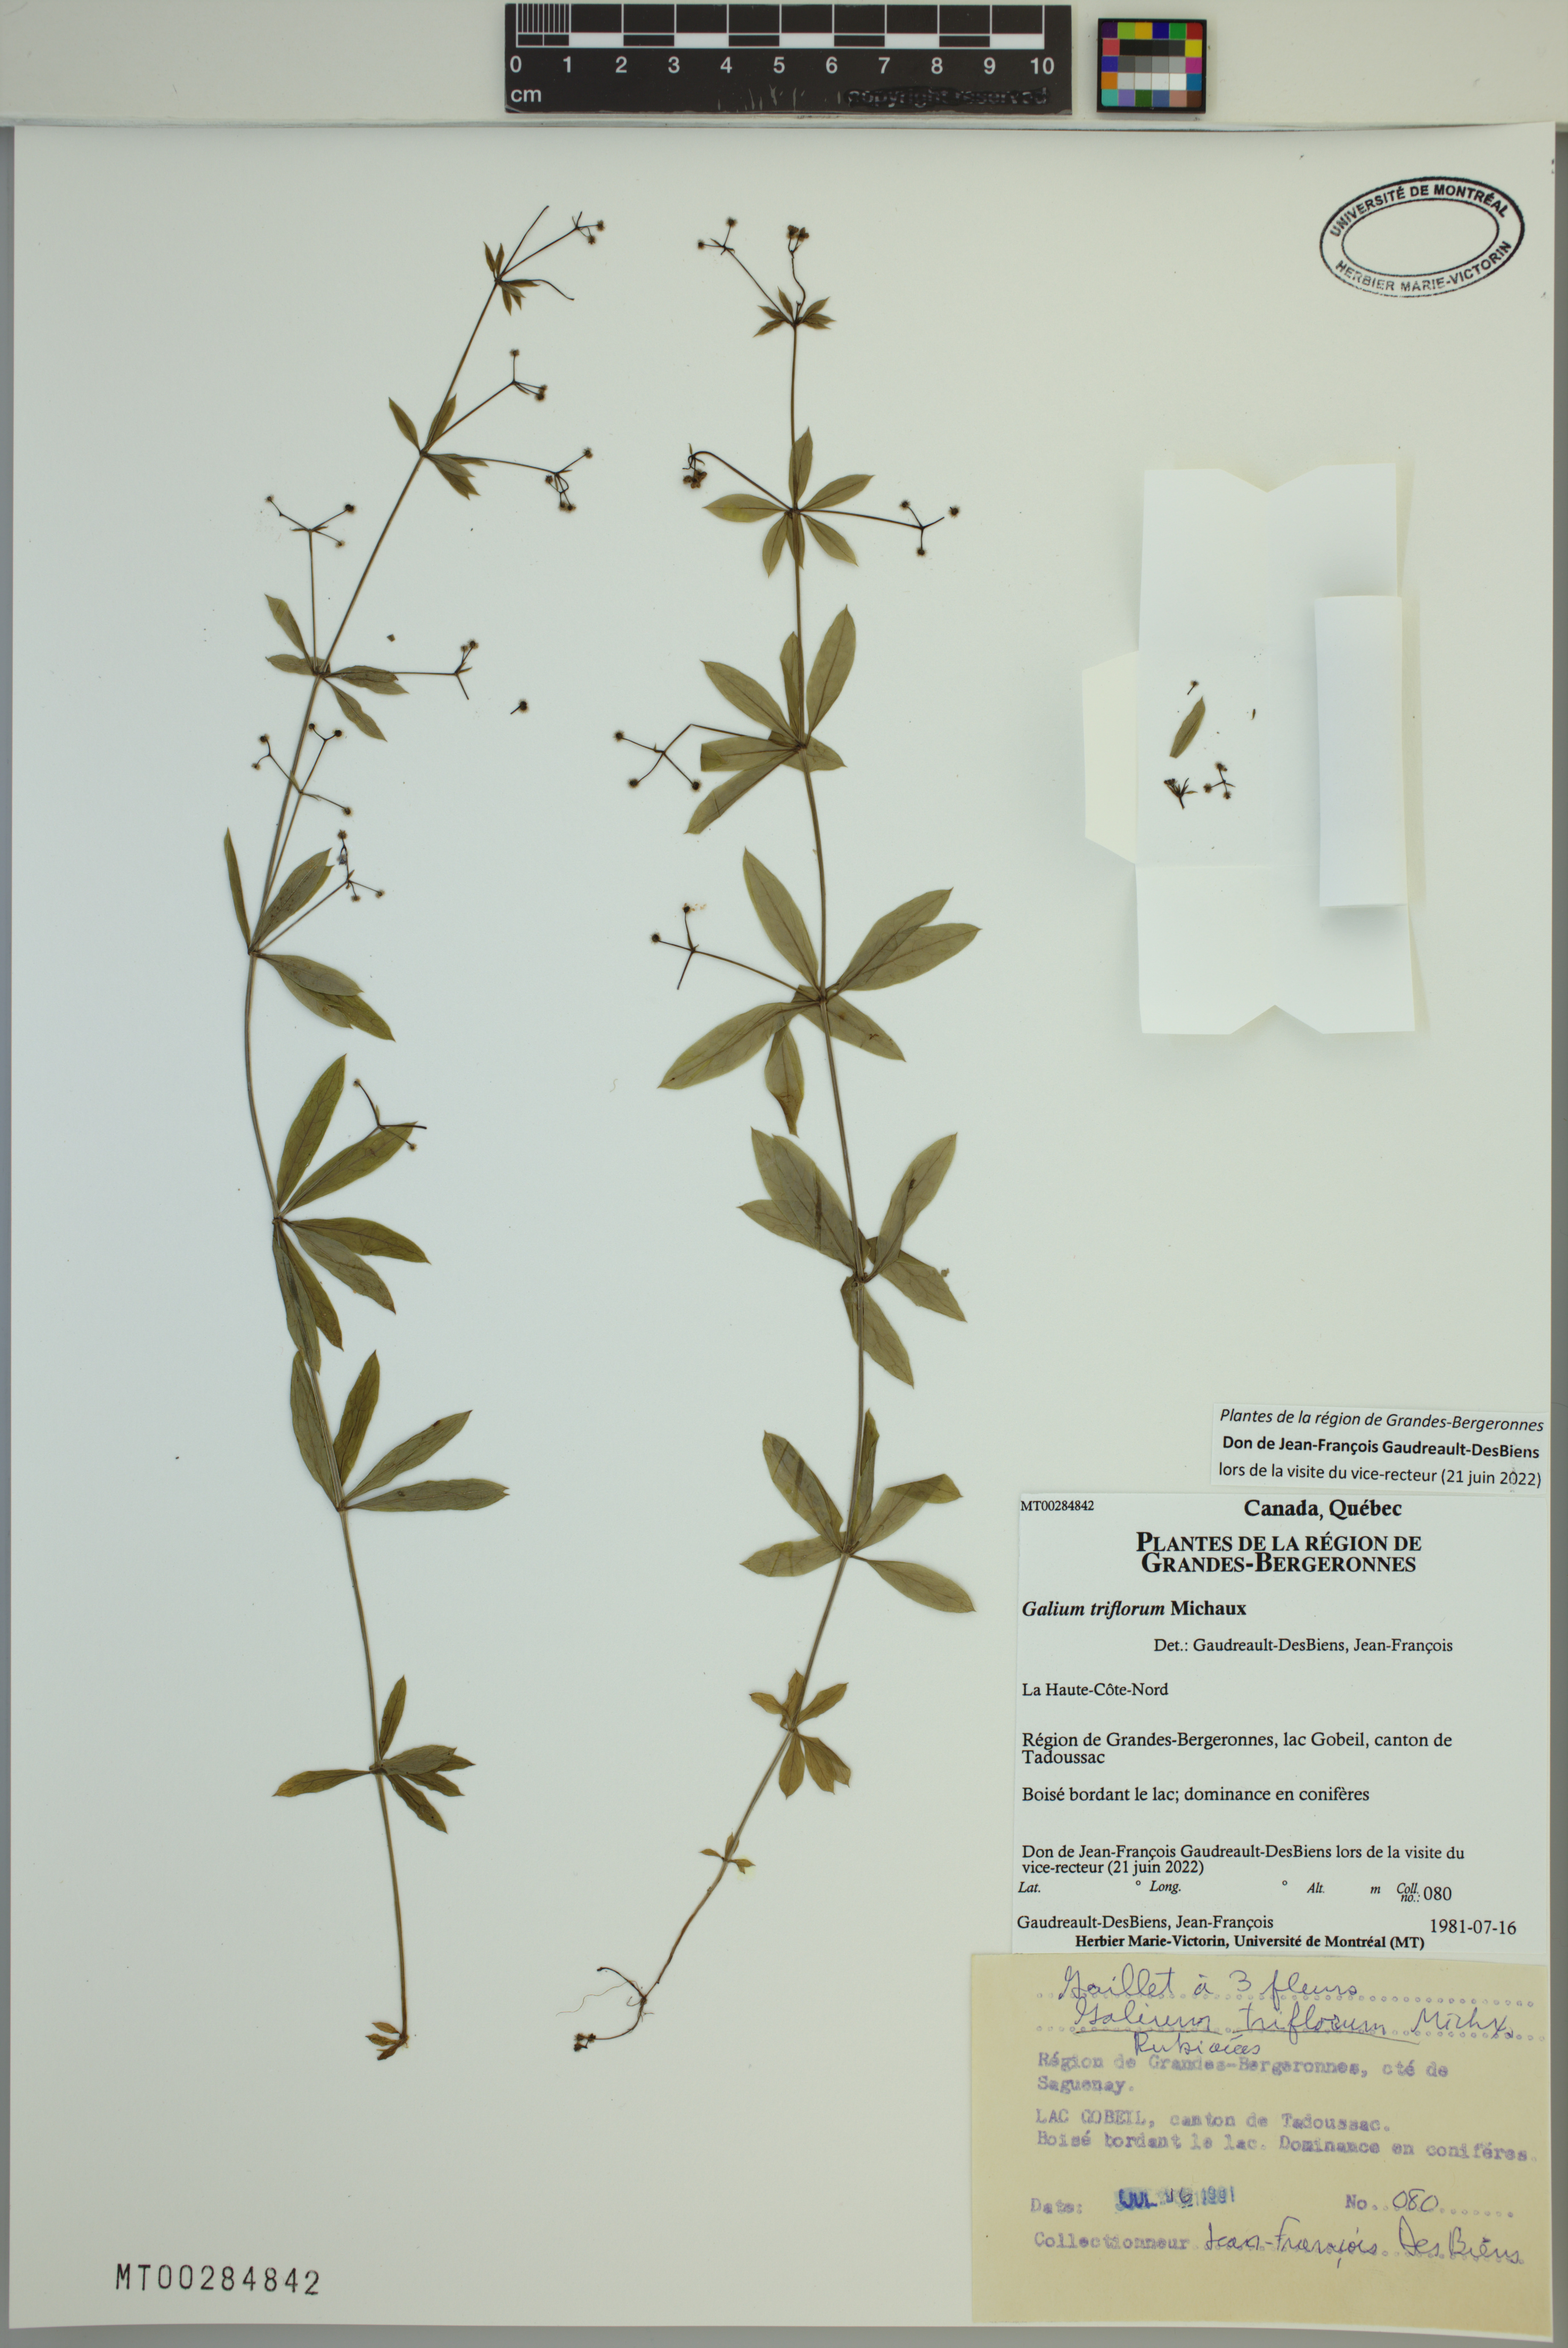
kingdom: Plantae
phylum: Tracheophyta
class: Magnoliopsida
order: Gentianales
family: Rubiaceae
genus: Galium
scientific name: Galium triflorum
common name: Fragrant bedstraw
